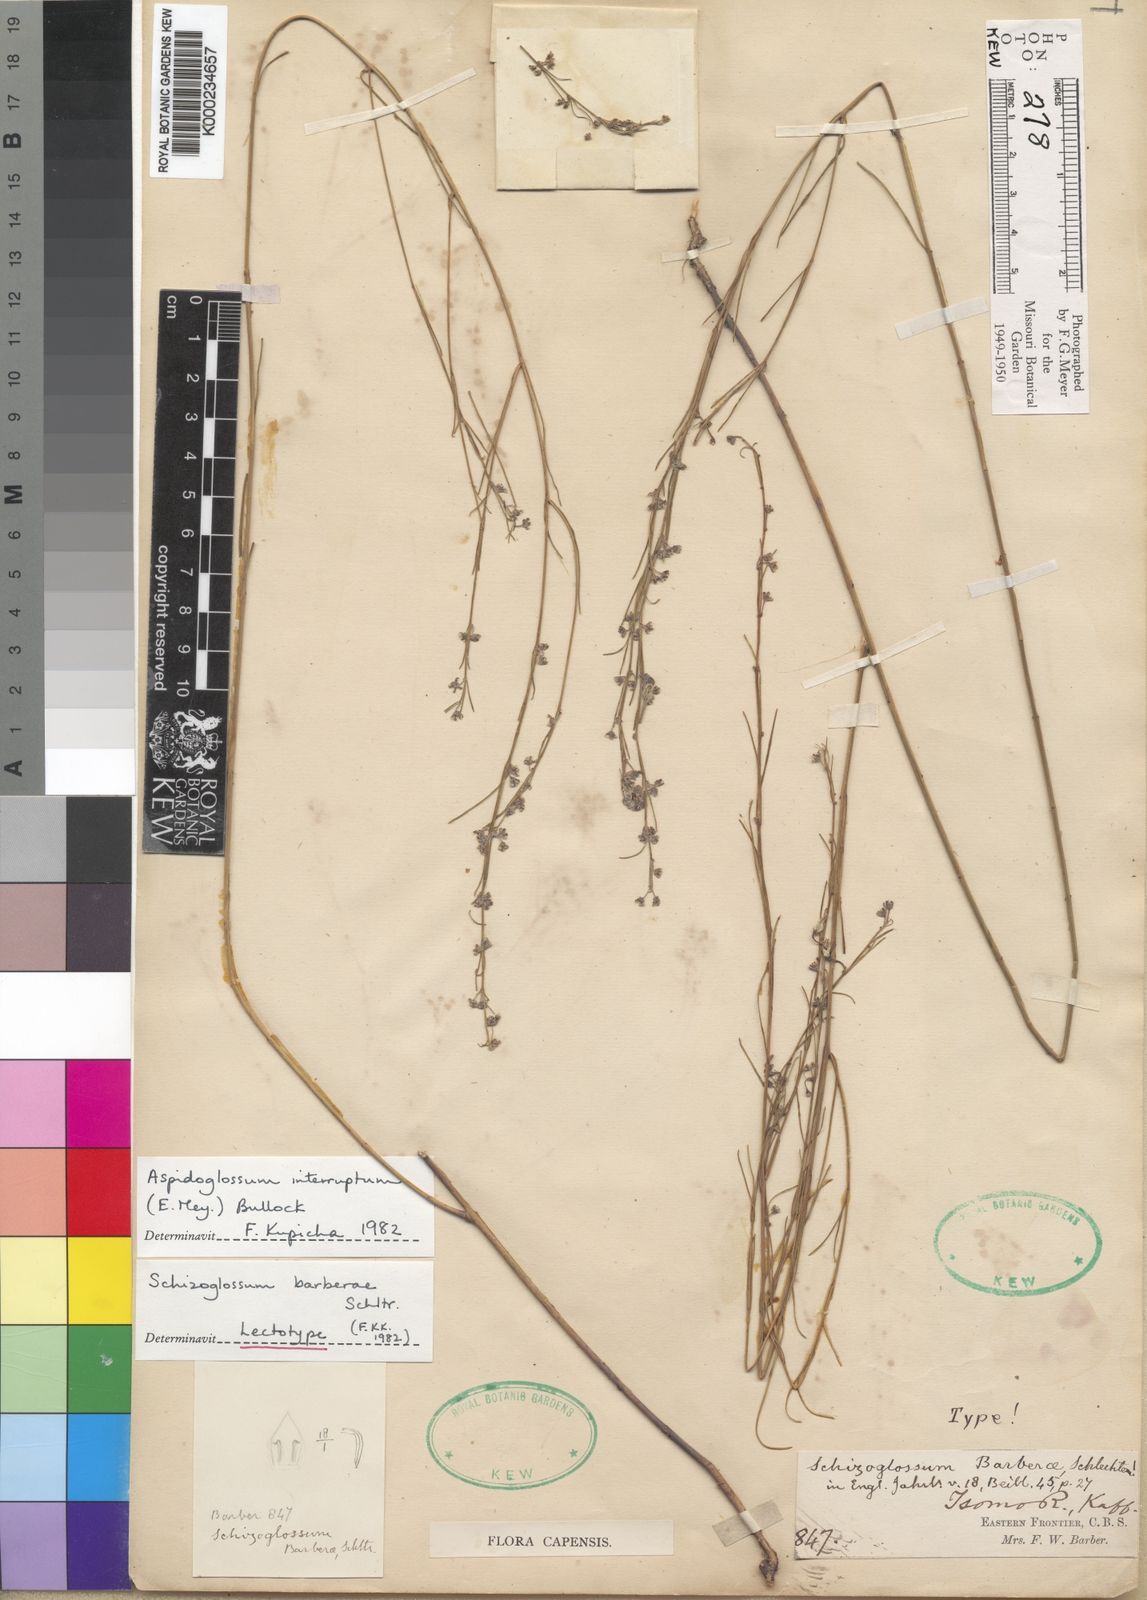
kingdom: Plantae
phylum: Tracheophyta
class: Magnoliopsida
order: Gentianales
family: Apocynaceae
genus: Aspidoglossum
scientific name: Aspidoglossum interruptum
